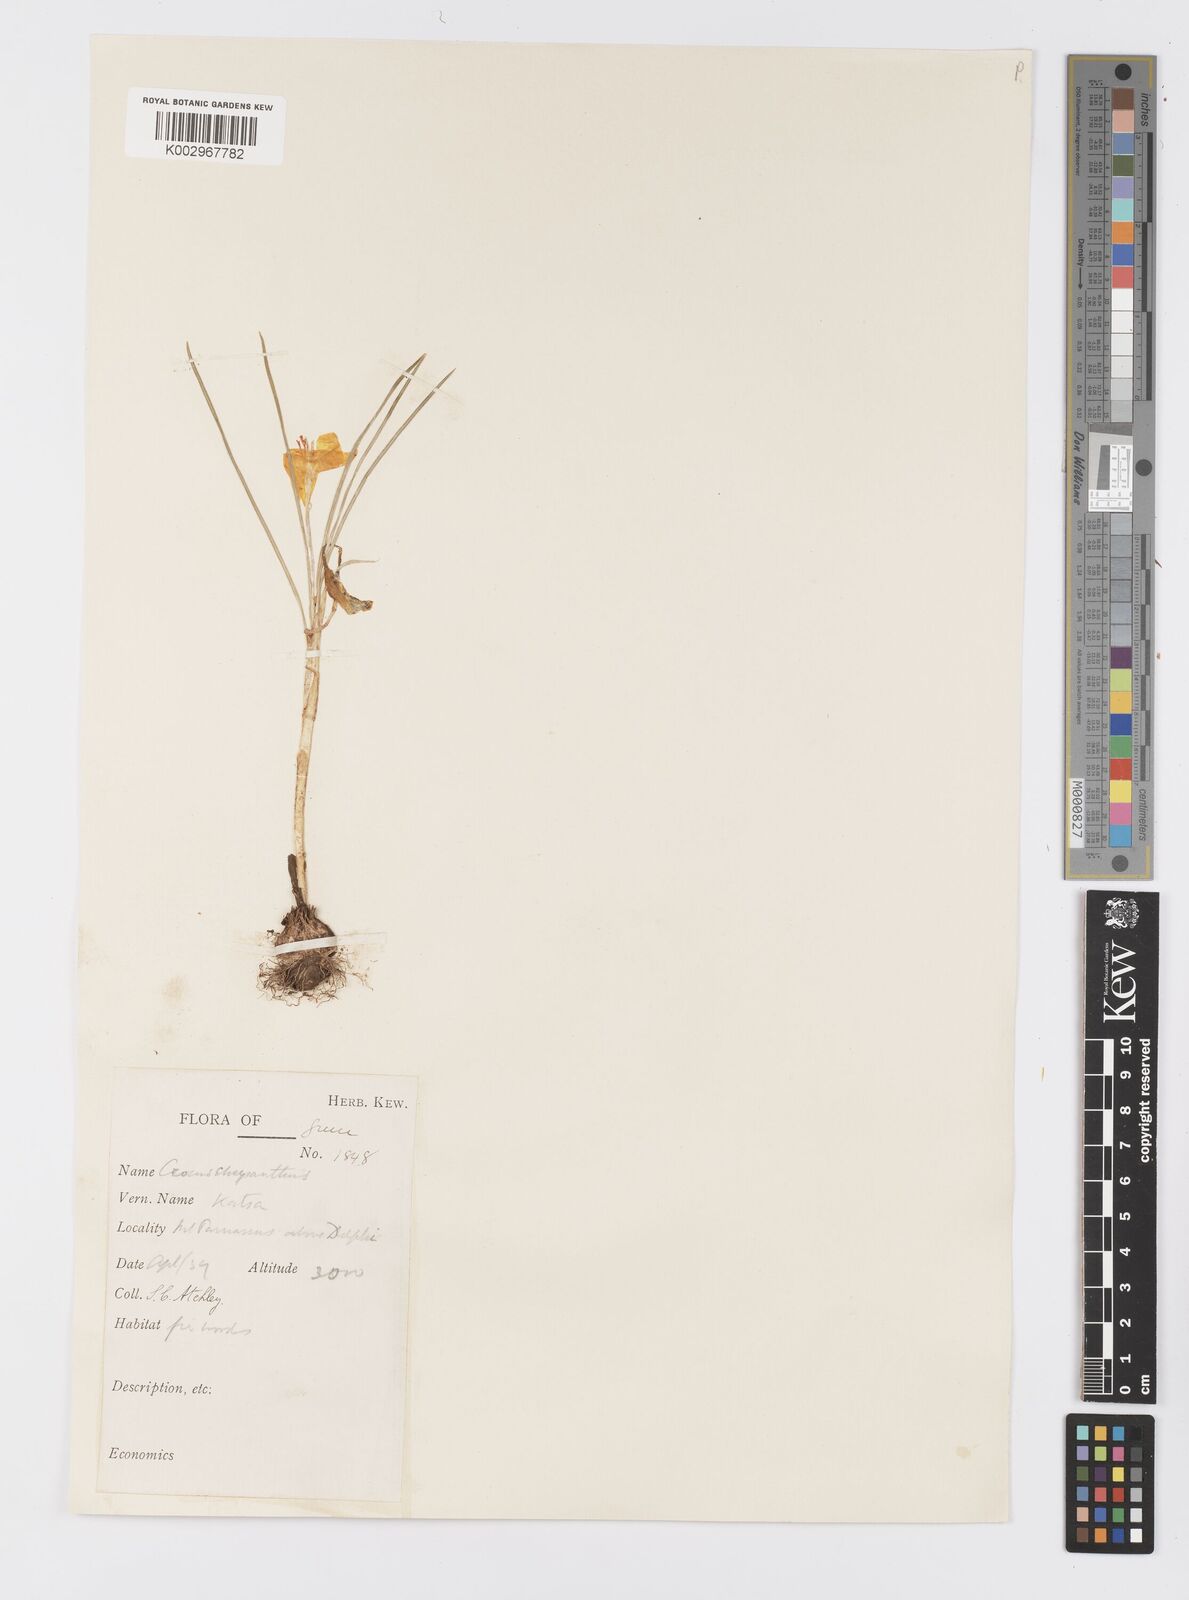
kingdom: Plantae
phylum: Tracheophyta
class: Liliopsida
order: Asparagales
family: Iridaceae
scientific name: Iridaceae
